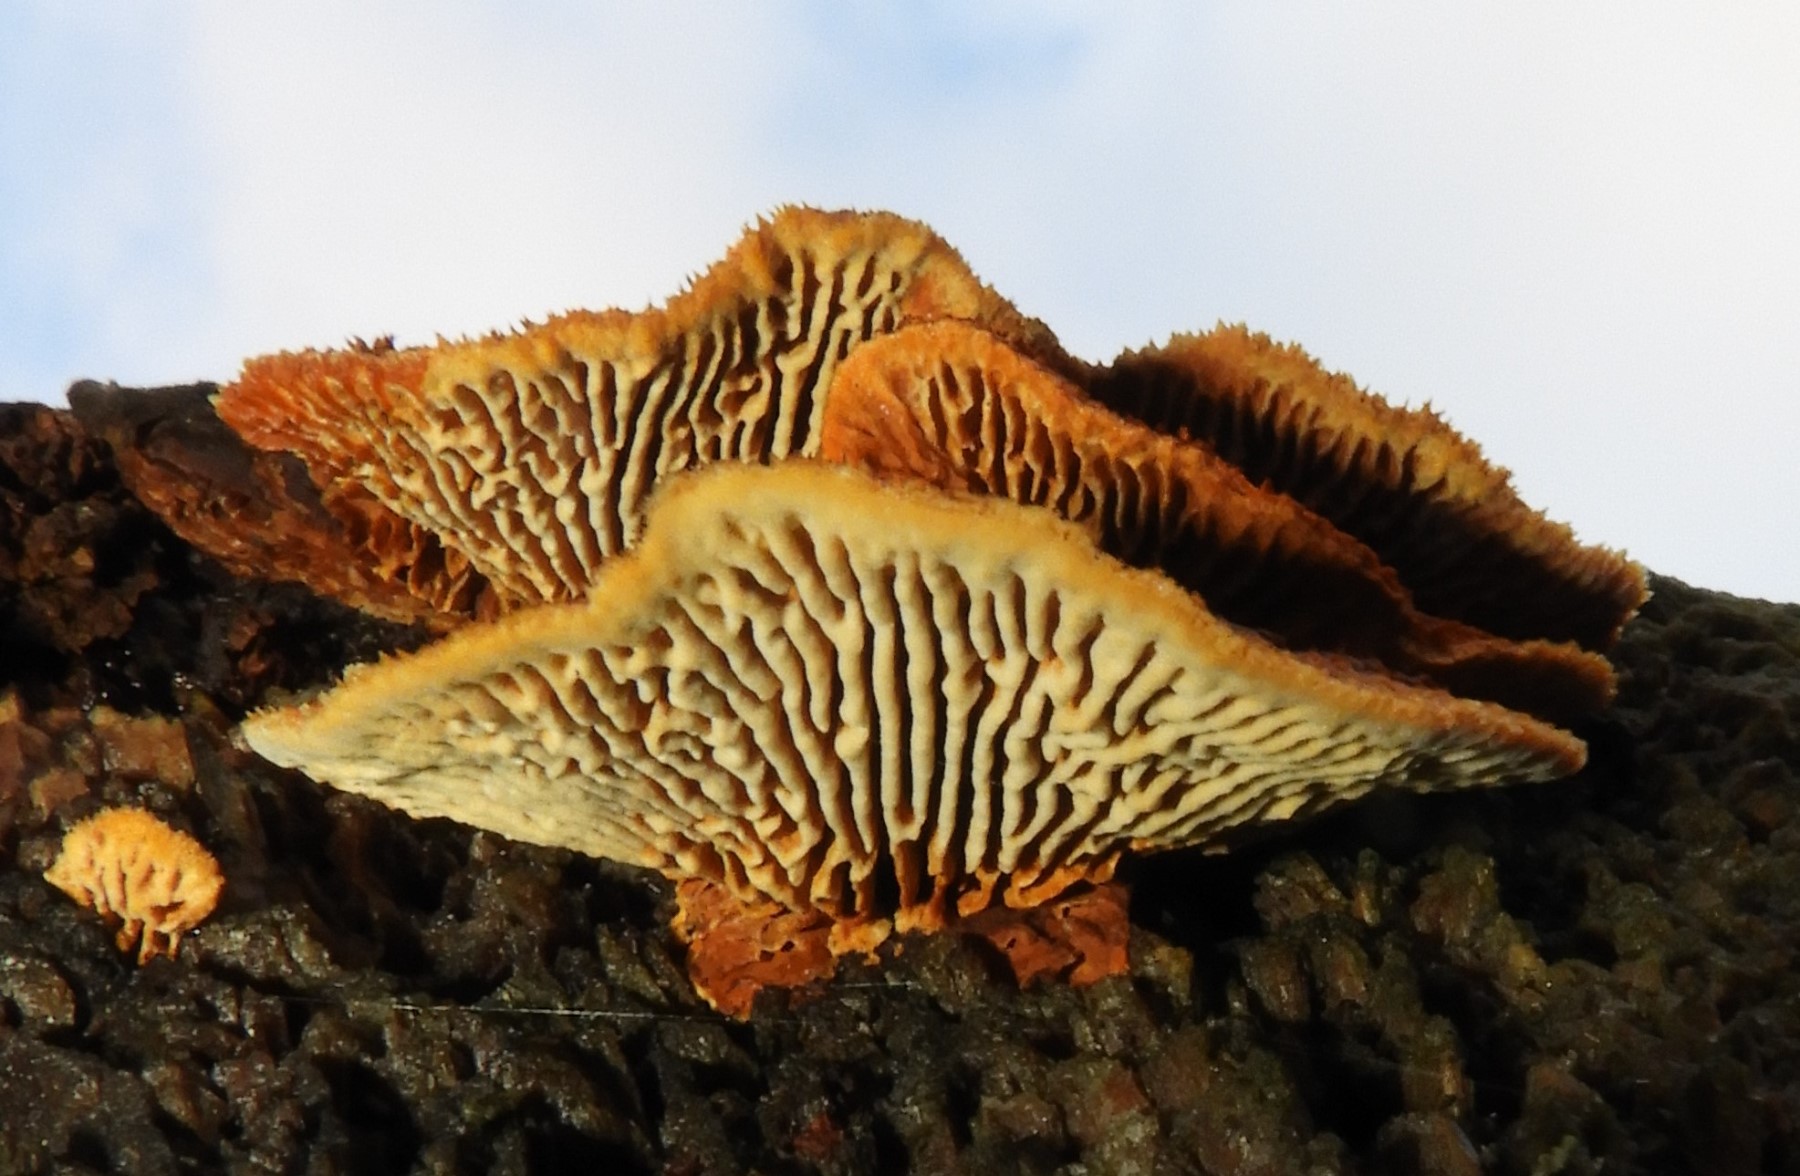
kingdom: Fungi
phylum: Basidiomycota
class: Agaricomycetes
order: Gloeophyllales
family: Gloeophyllaceae
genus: Gloeophyllum
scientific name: Gloeophyllum sepiarium
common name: fyrre-korkhat
